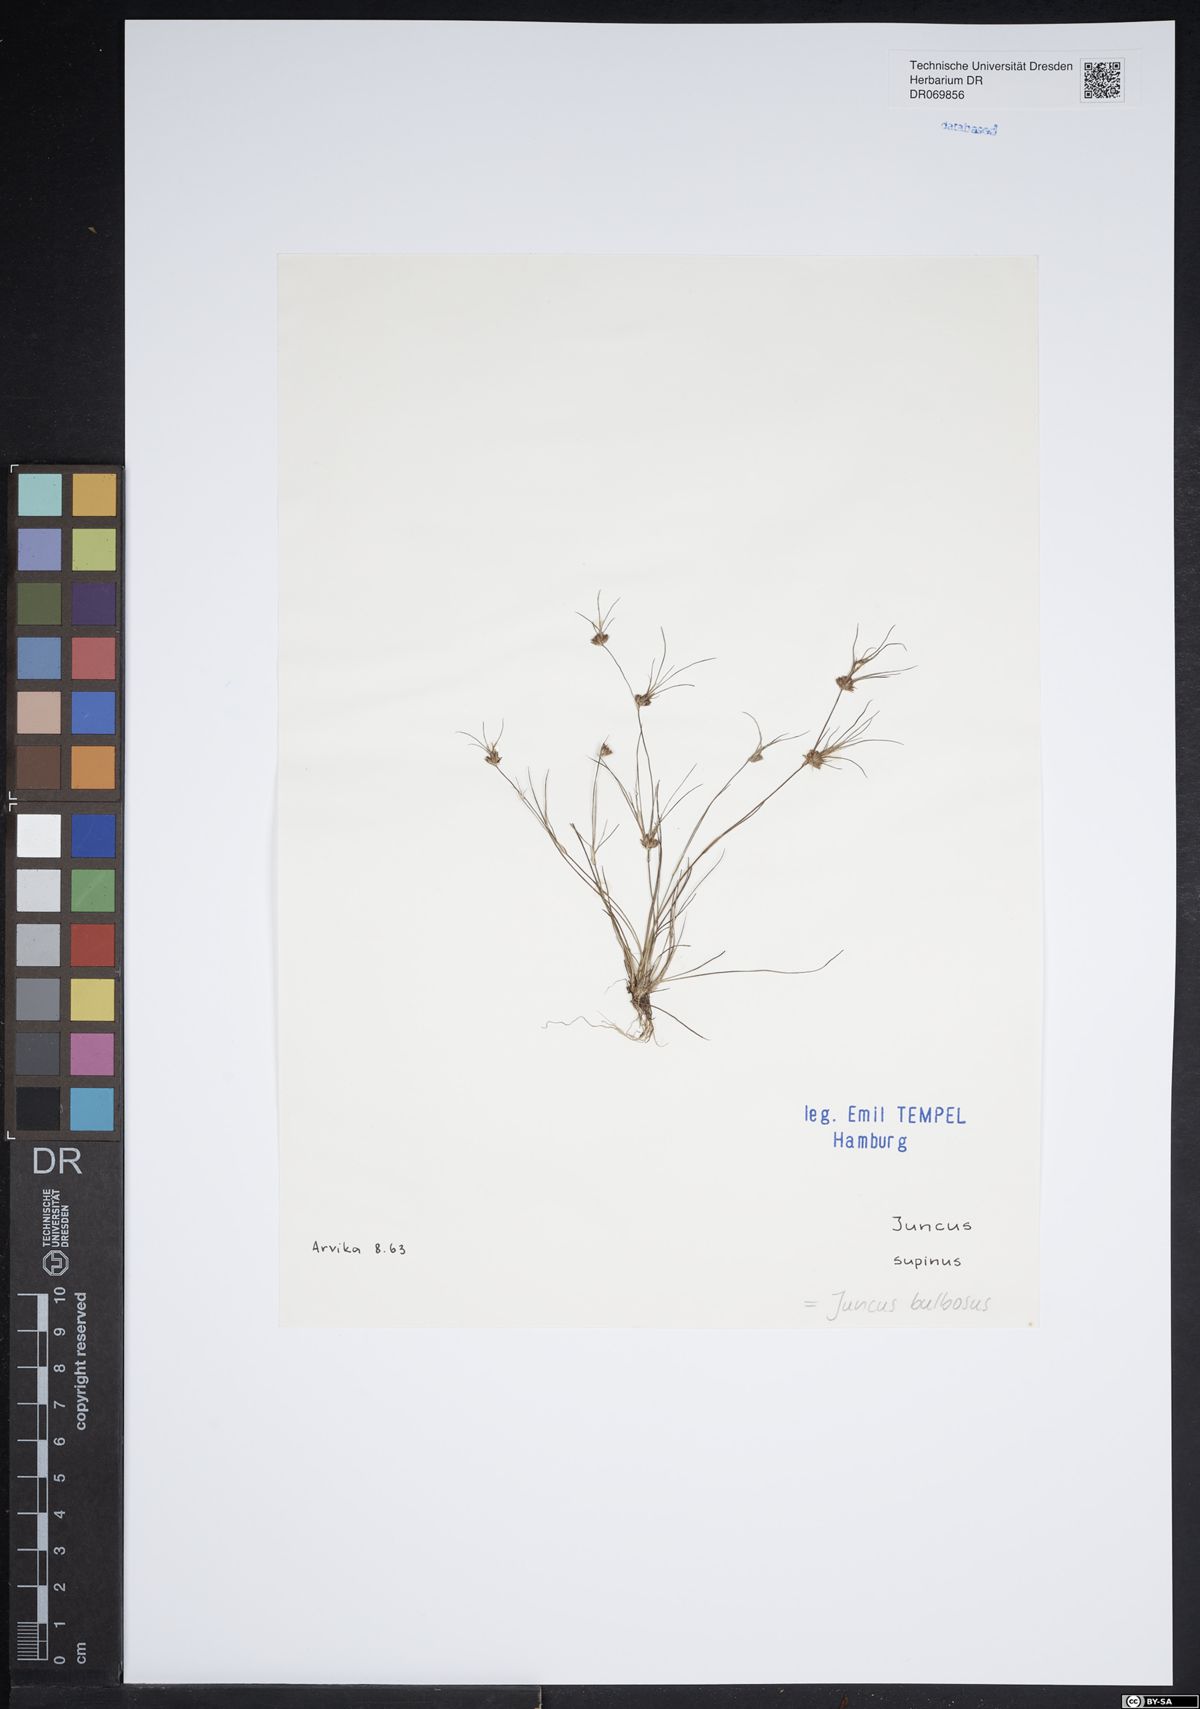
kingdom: Plantae
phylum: Tracheophyta
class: Liliopsida
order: Poales
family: Juncaceae
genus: Juncus
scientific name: Juncus bulbosus
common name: Bulbous rush
